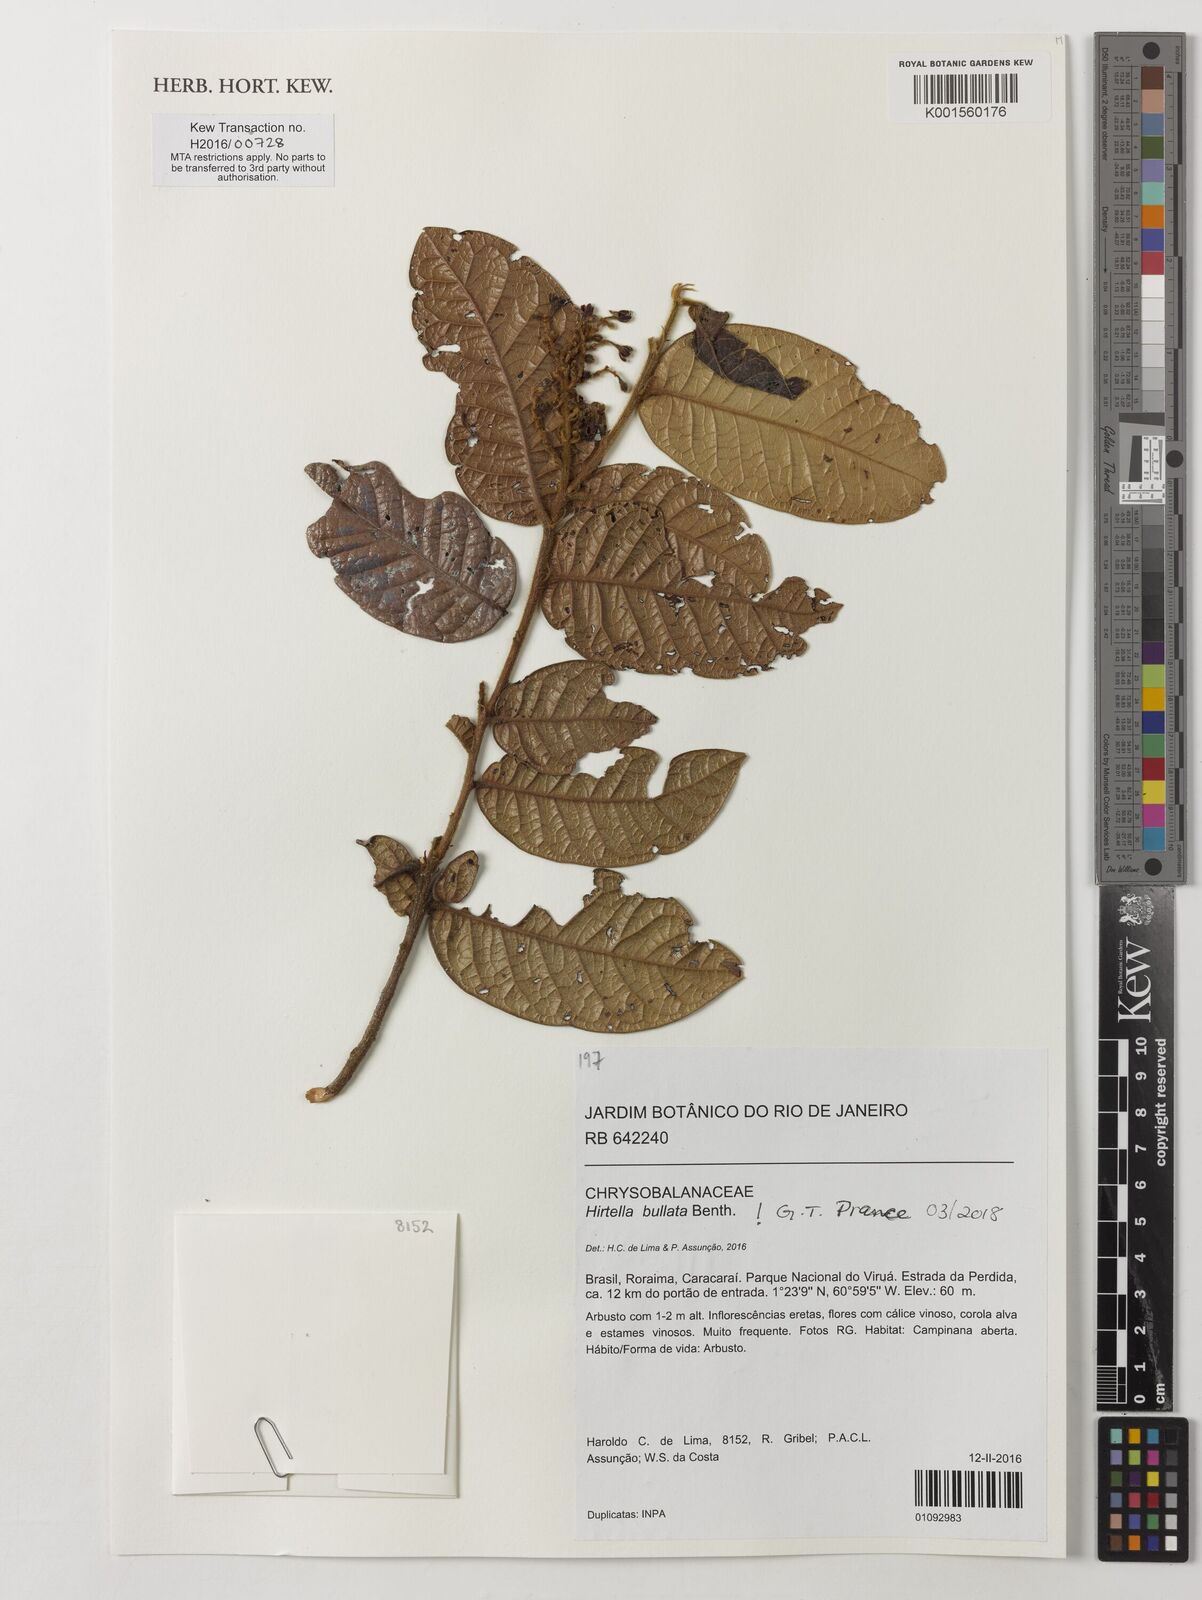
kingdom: Plantae
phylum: Tracheophyta
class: Magnoliopsida
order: Malpighiales
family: Chrysobalanaceae
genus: Hirtella
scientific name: Hirtella bullata
